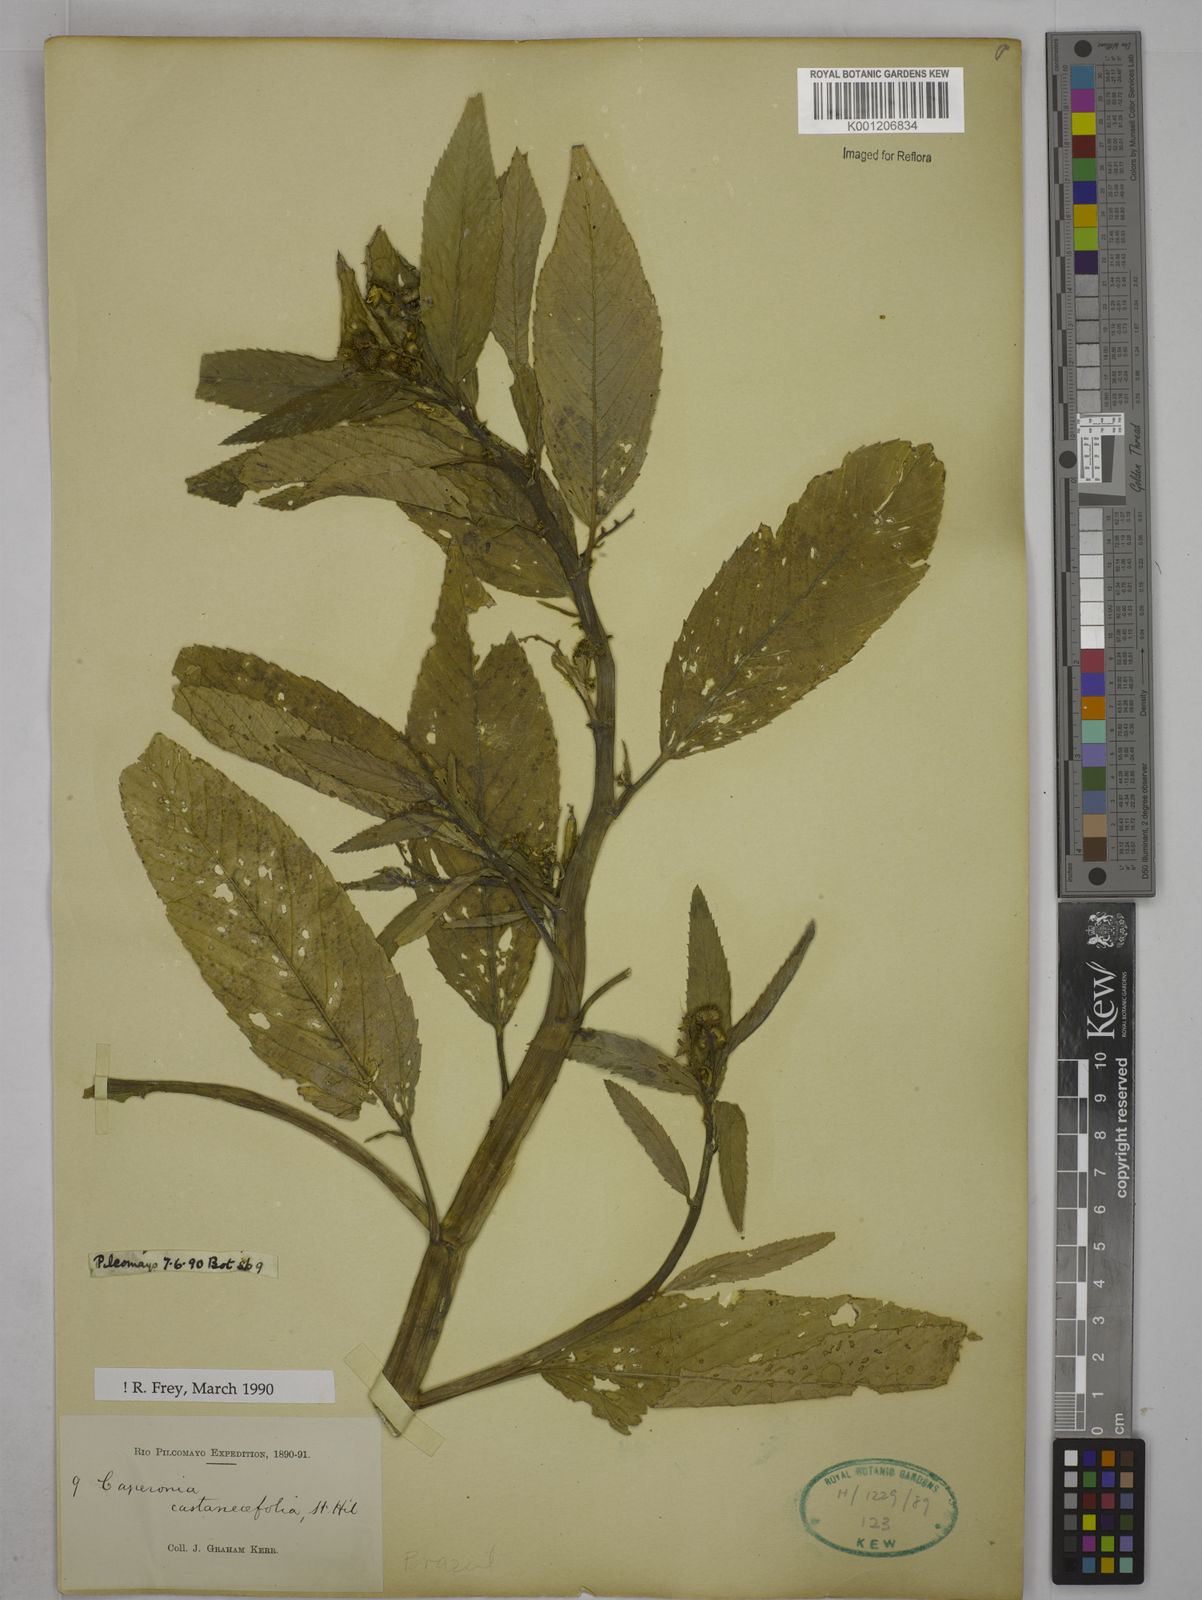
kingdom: Plantae
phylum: Tracheophyta
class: Magnoliopsida
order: Malpighiales
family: Euphorbiaceae
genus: Caperonia
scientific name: Caperonia castaneifolia
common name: Chestnutleaf false croton
